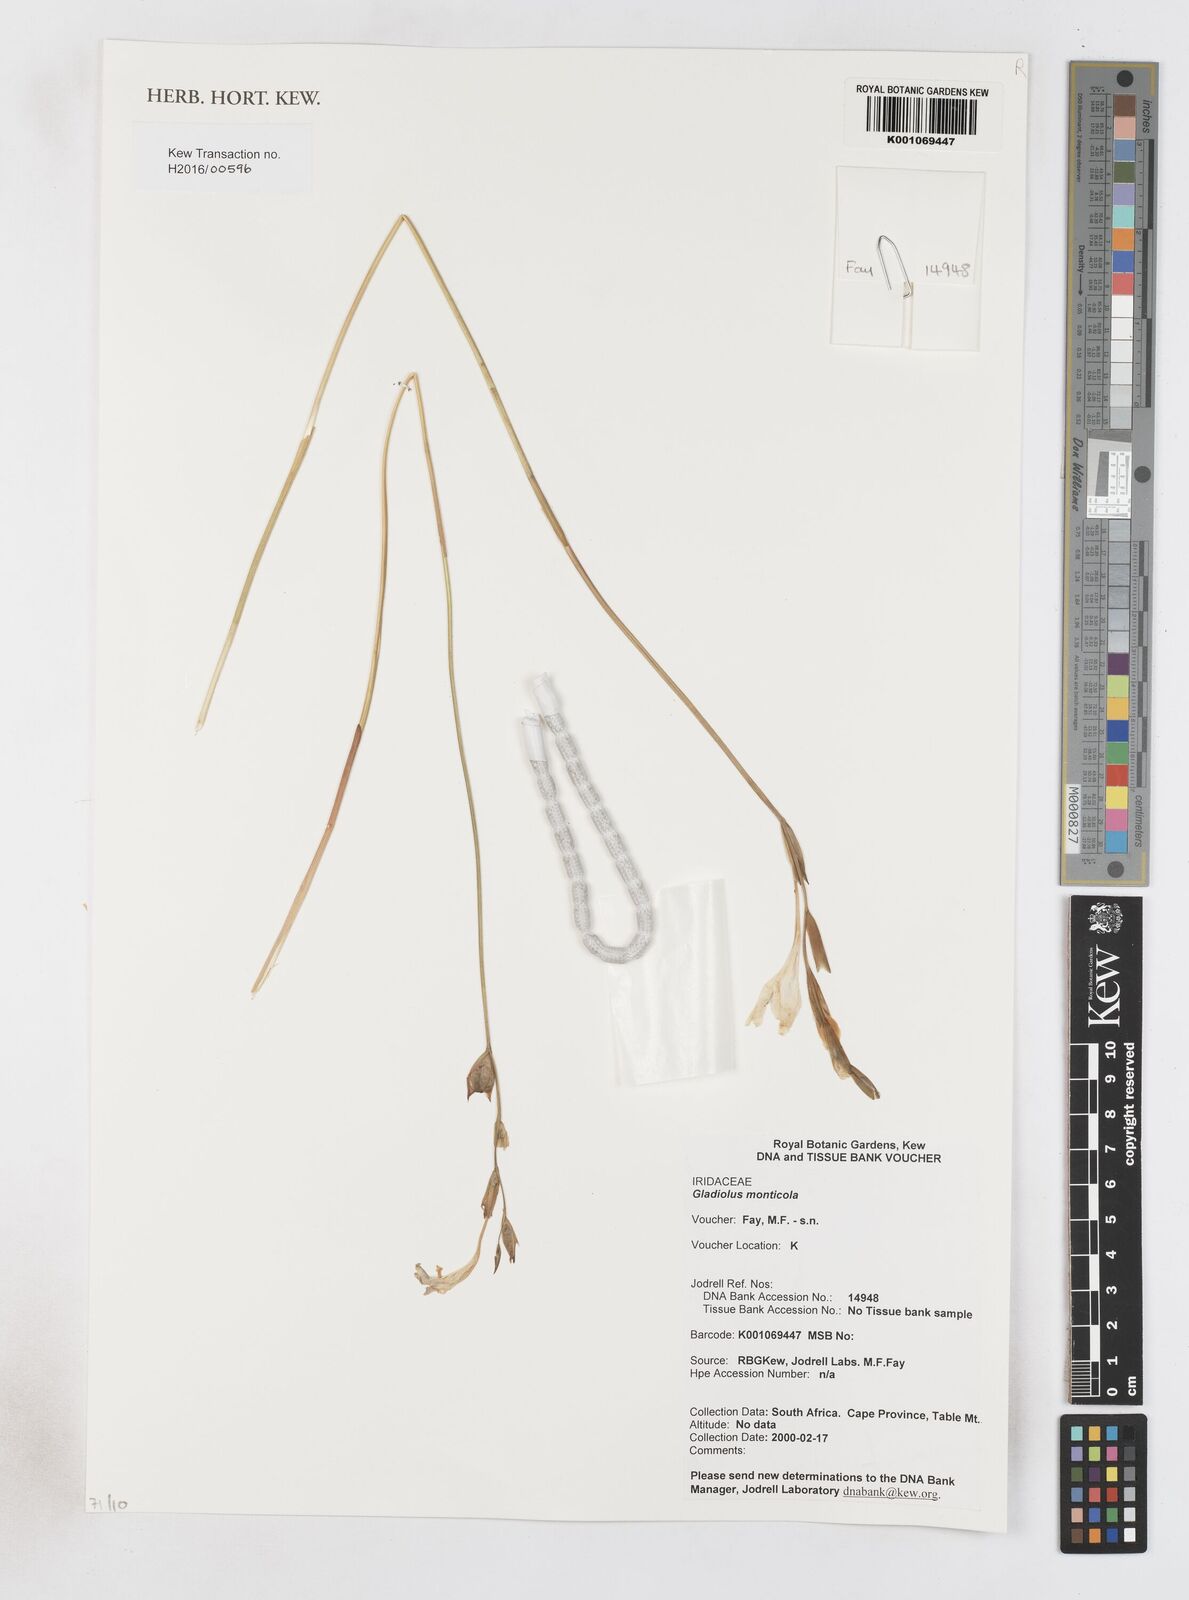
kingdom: Plantae
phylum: Tracheophyta
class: Liliopsida
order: Asparagales
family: Iridaceae
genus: Gladiolus
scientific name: Gladiolus monticola
